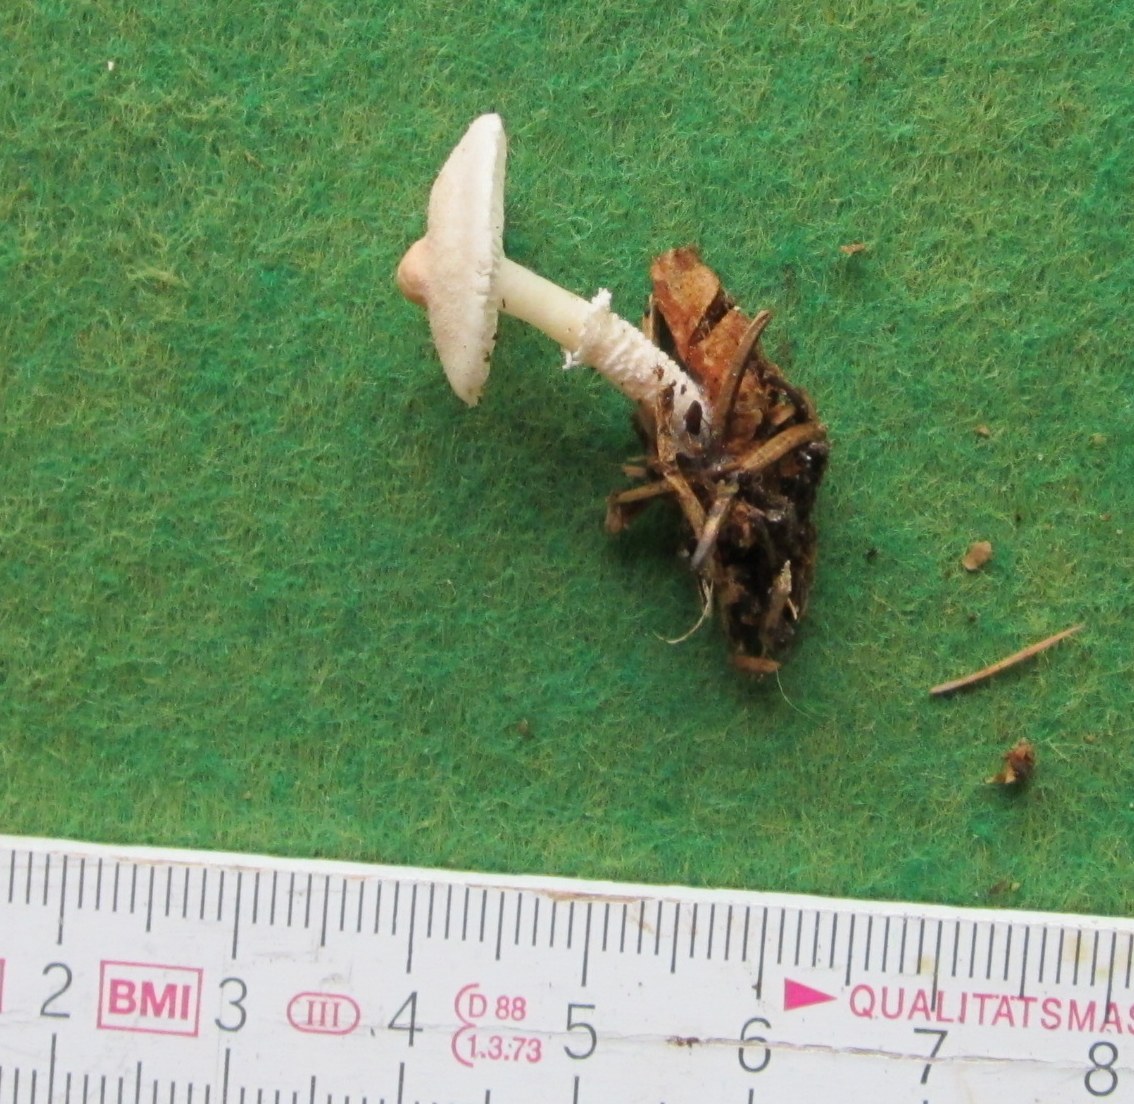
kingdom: Fungi
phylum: Basidiomycota
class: Agaricomycetes
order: Agaricales
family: Tricholomataceae
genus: Cystoderma
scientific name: Cystoderma carcharias
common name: rødgrå grynhat
